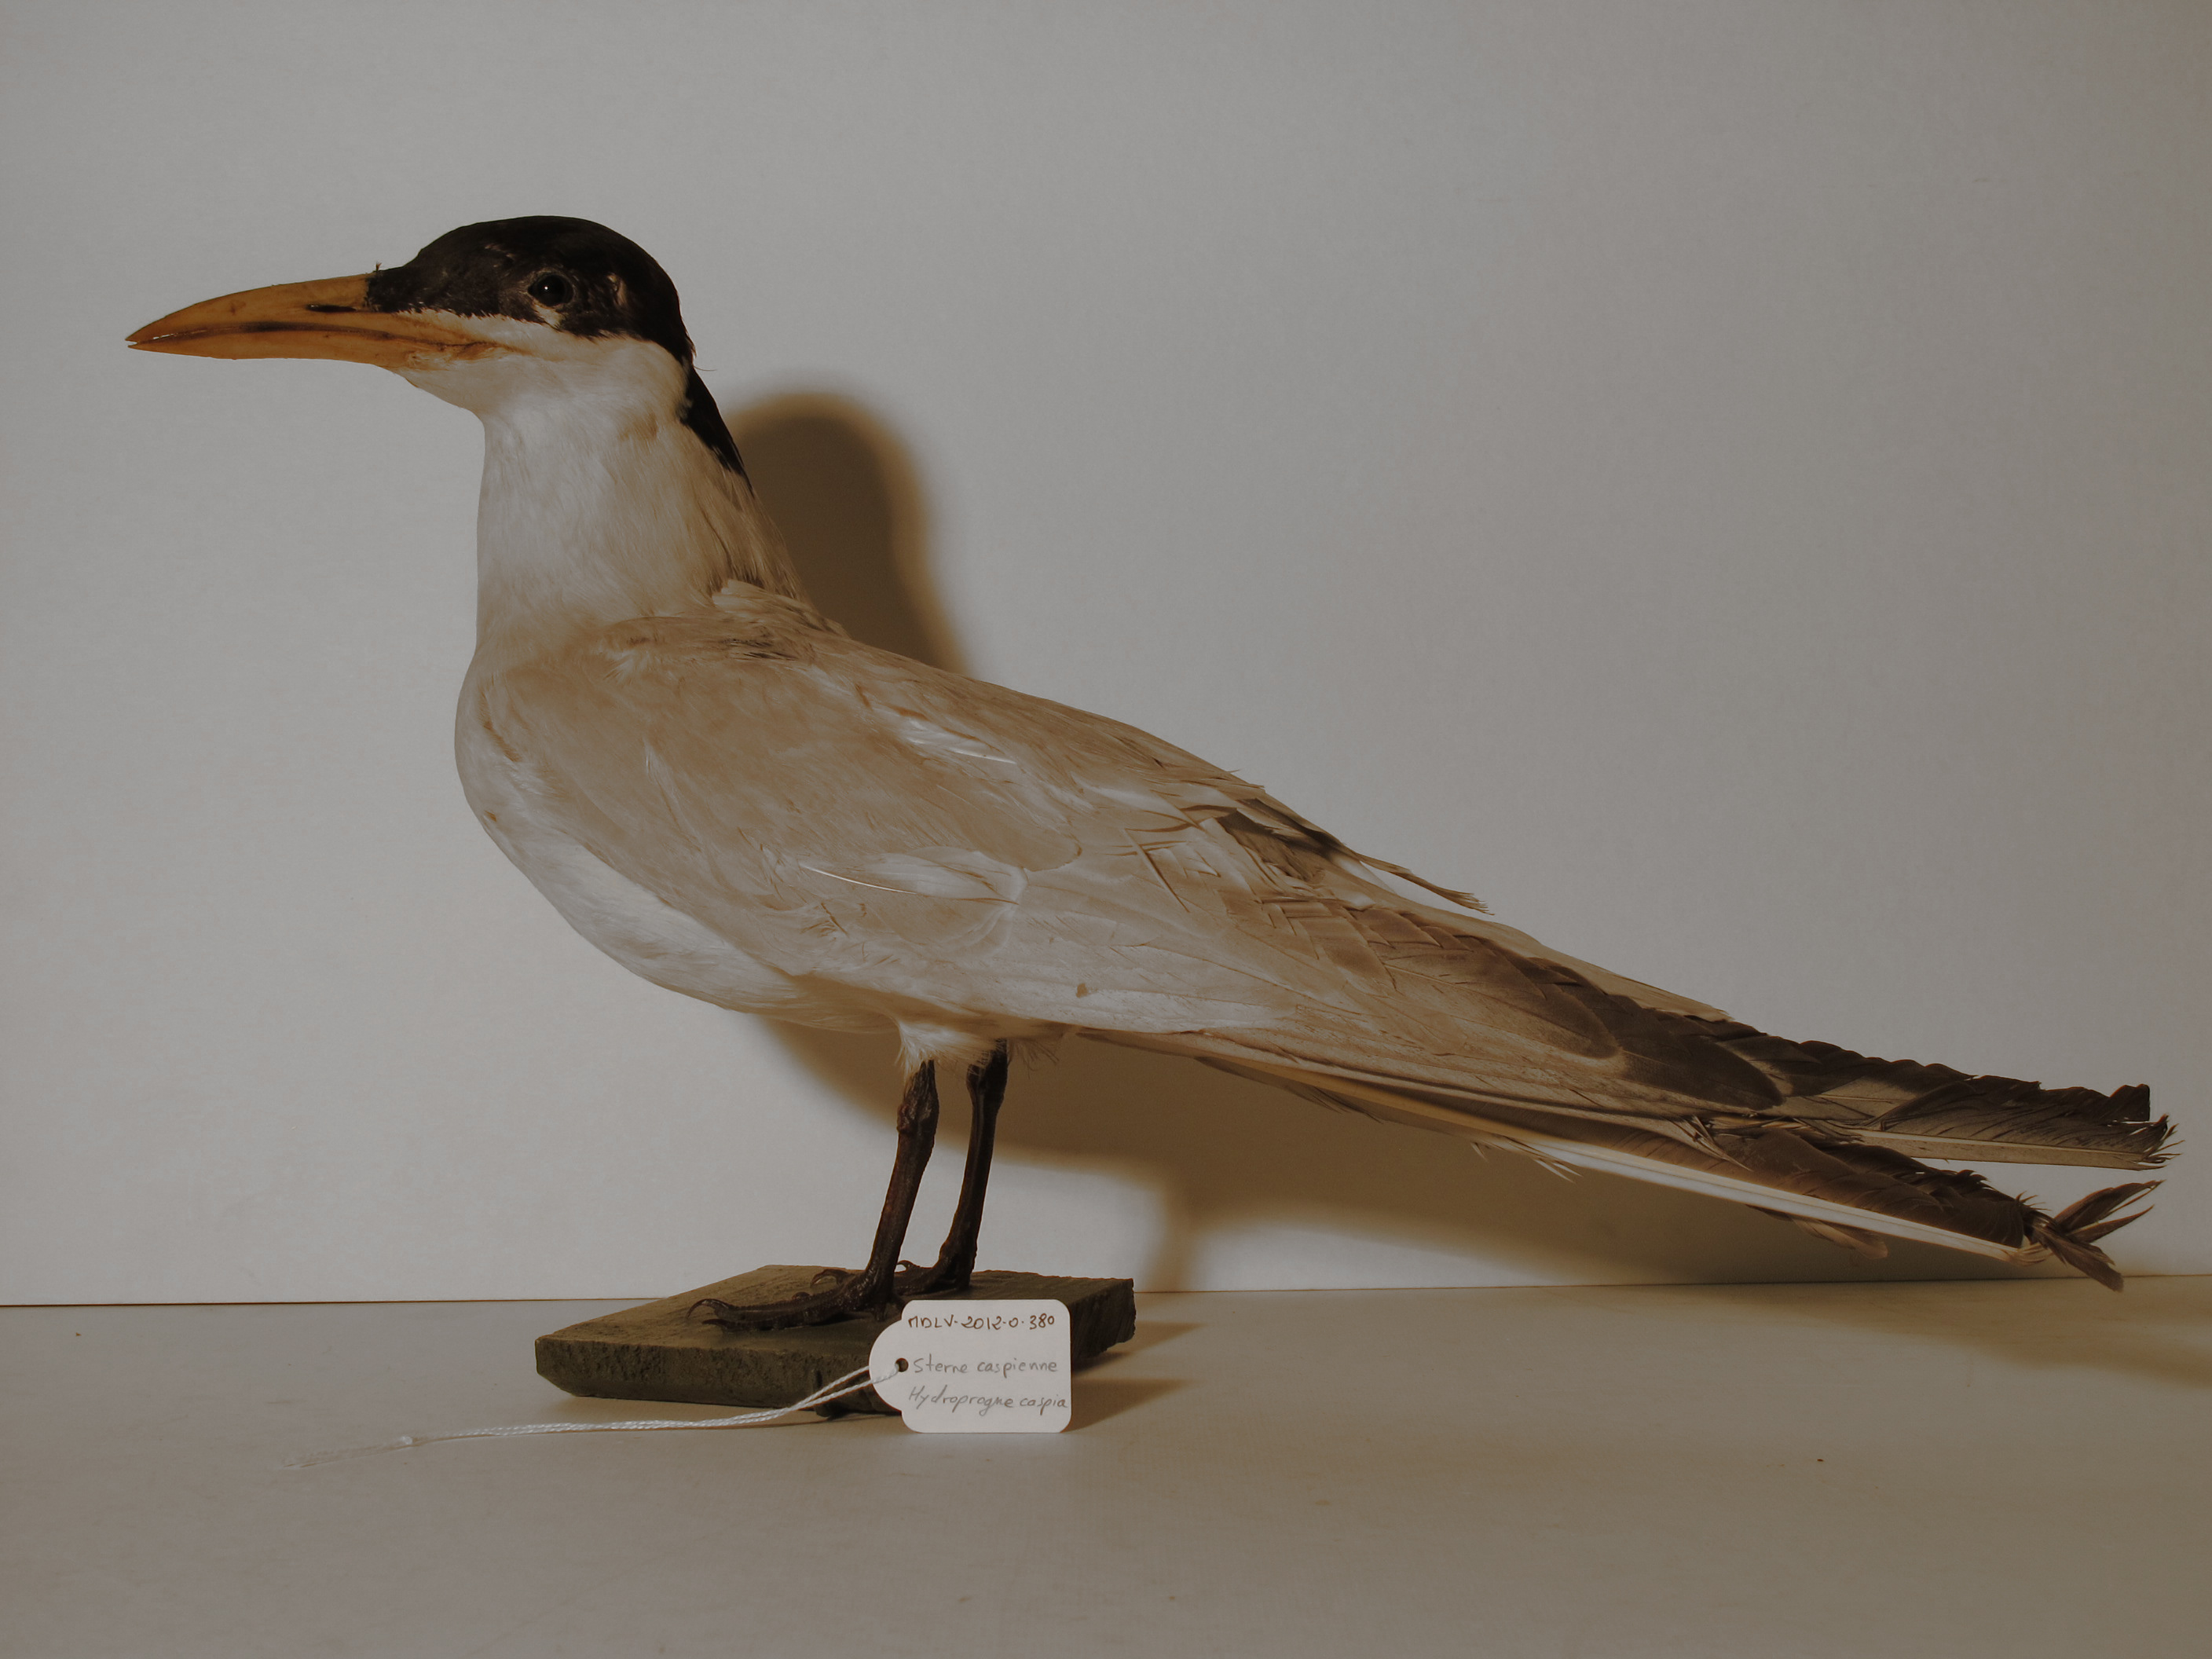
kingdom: Animalia
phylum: Chordata
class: Aves
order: Charadriiformes
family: Laridae
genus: Hydroprogne
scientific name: Hydroprogne caspia
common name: Caspian Tern
